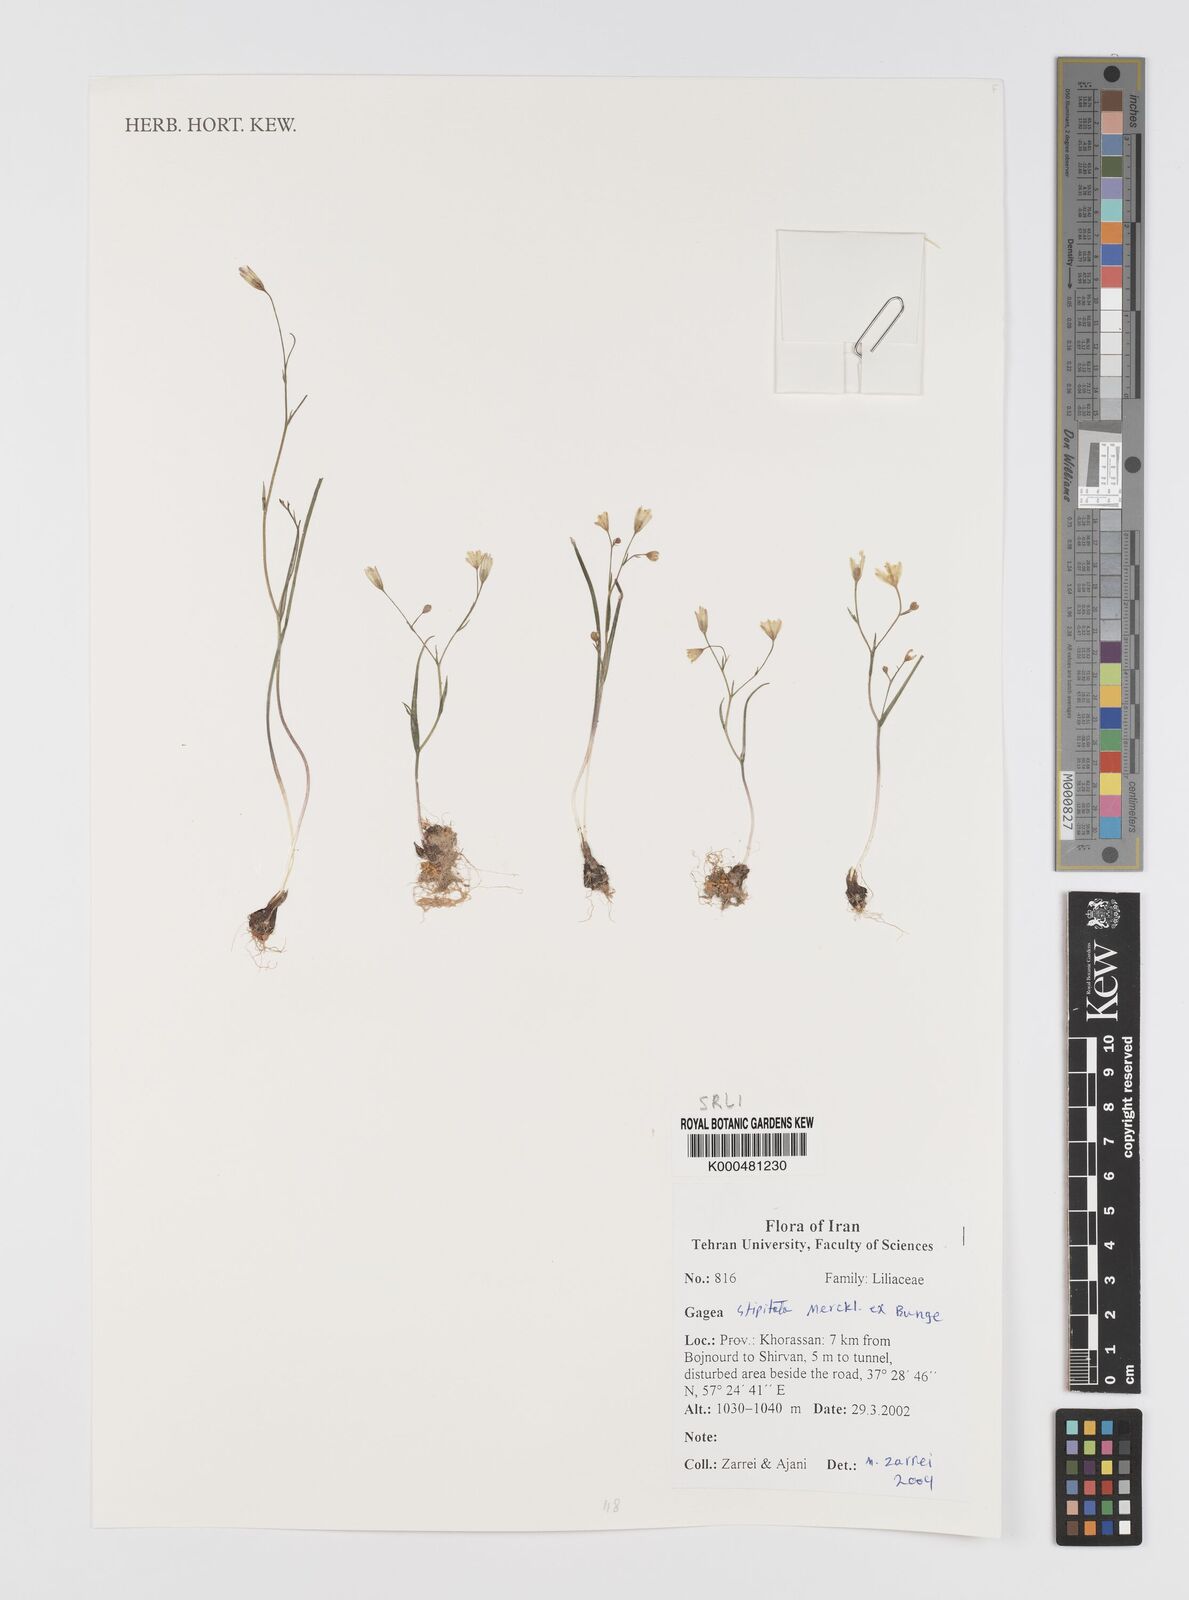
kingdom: Plantae
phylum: Tracheophyta
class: Liliopsida
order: Liliales
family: Liliaceae
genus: Gagea
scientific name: Gagea kunawurensis
